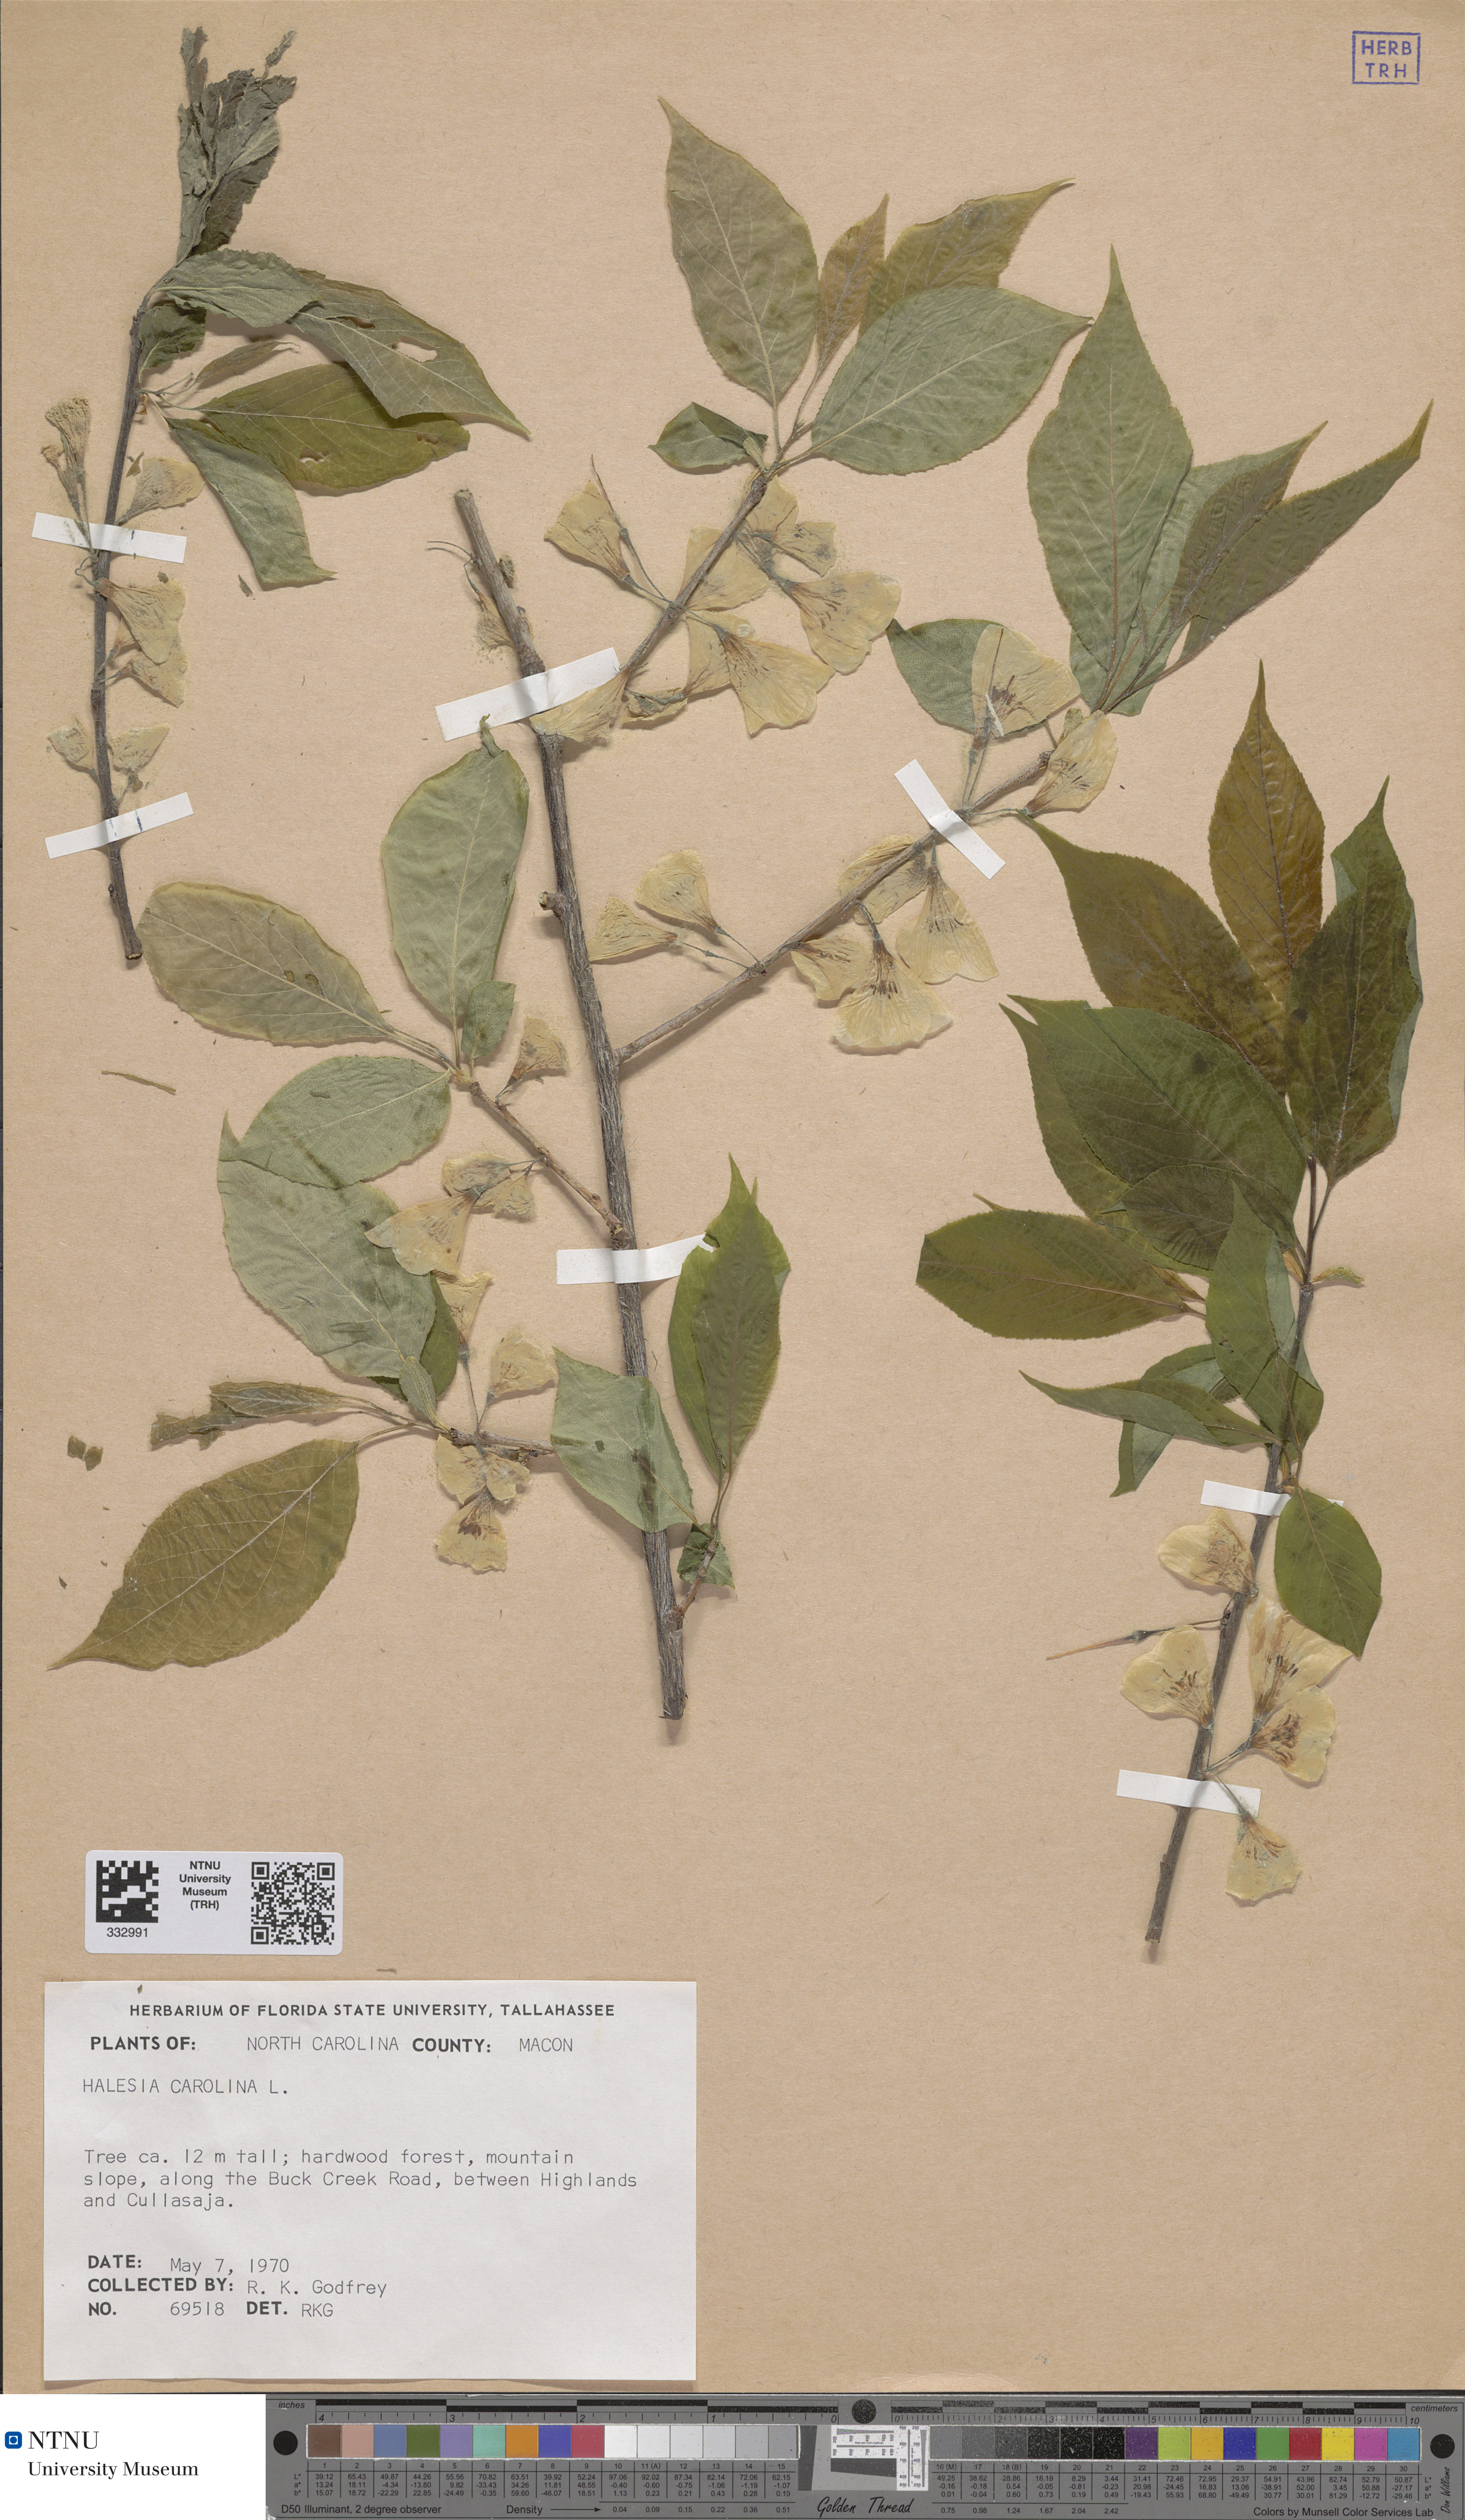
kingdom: Plantae
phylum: Tracheophyta
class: Magnoliopsida
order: Ericales
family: Styracaceae
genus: Halesia
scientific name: Halesia carolina
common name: Carolina silverbell
